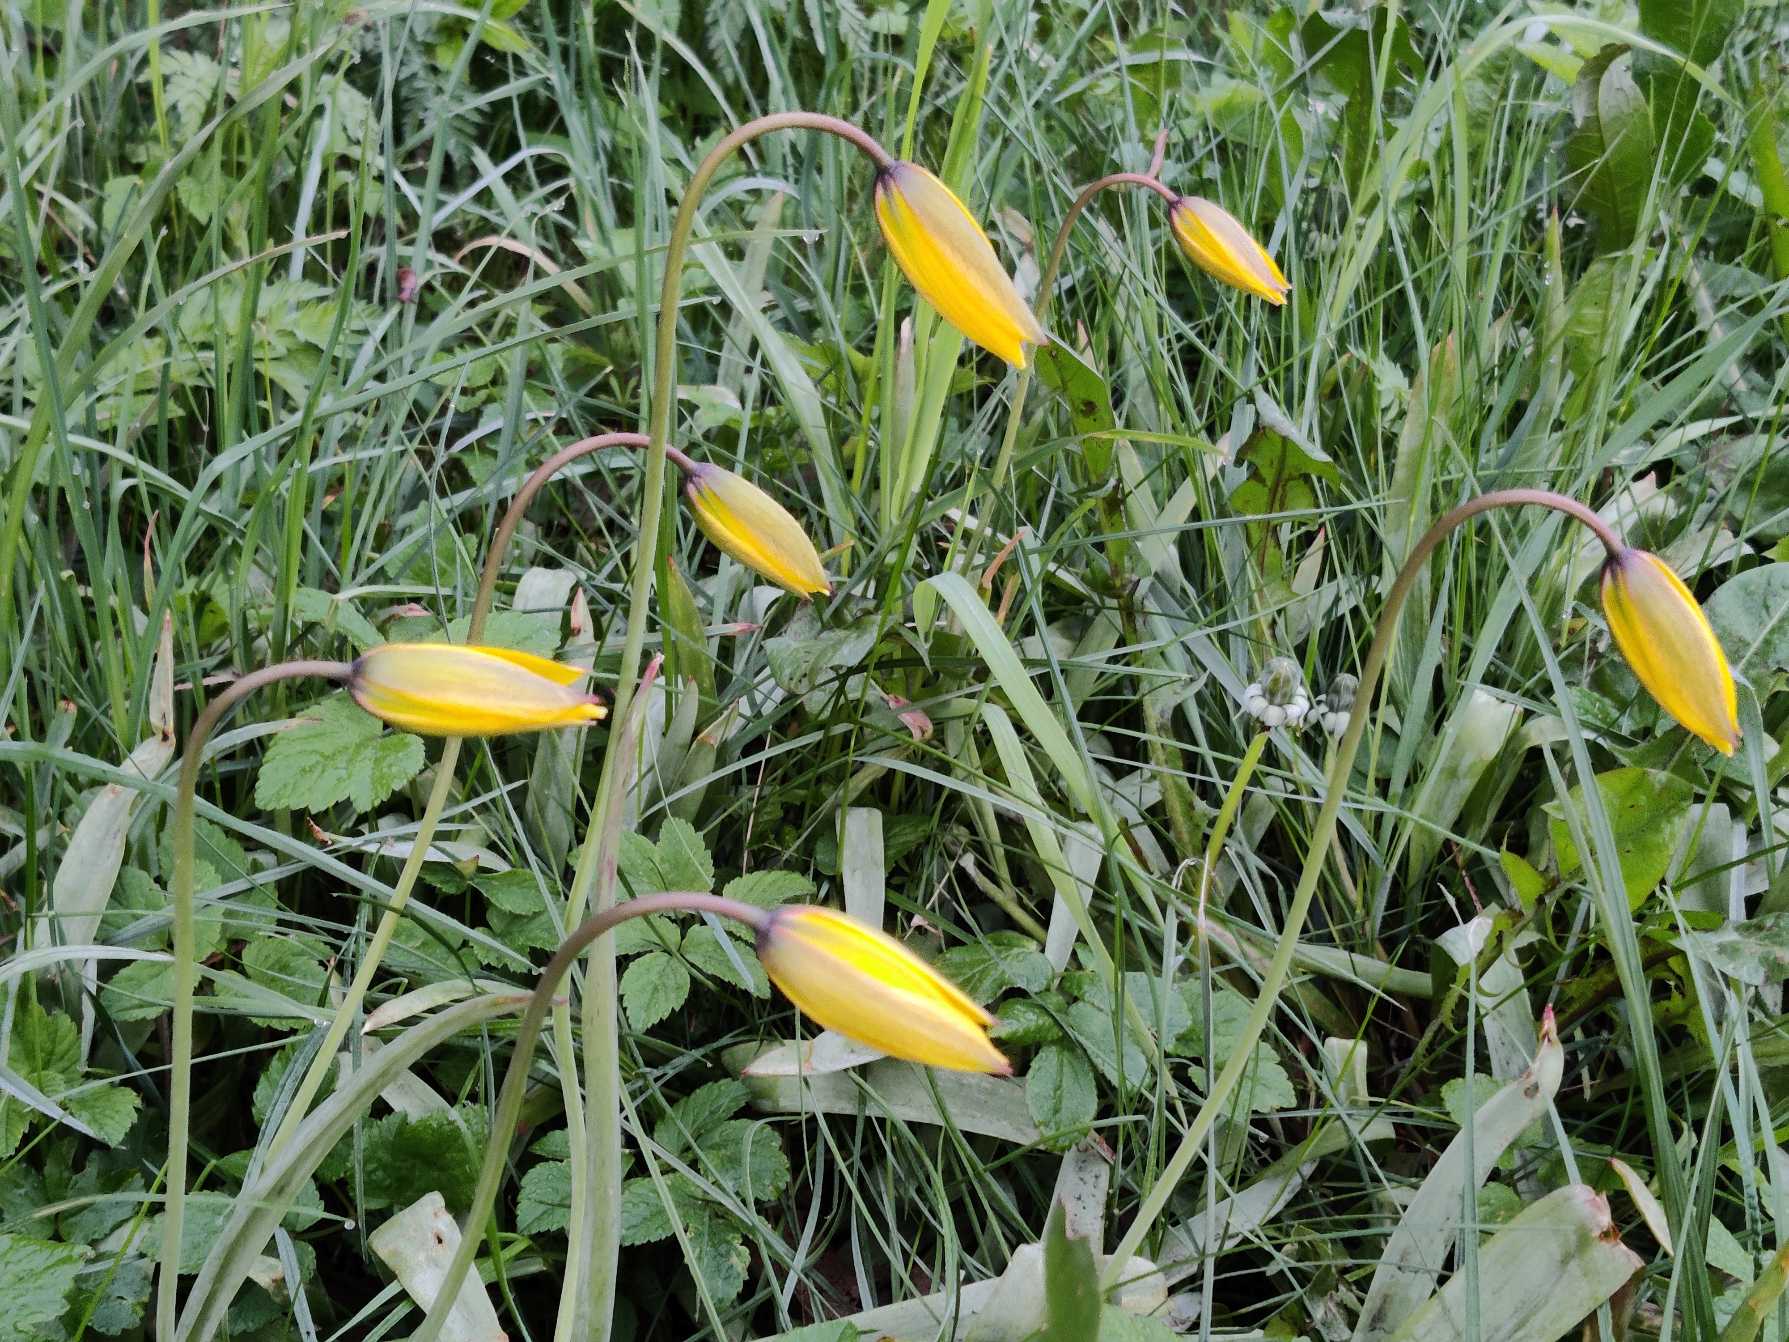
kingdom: Plantae
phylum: Tracheophyta
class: Liliopsida
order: Liliales
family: Liliaceae
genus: Tulipa
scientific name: Tulipa sylvestris
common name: Vild tulipan
